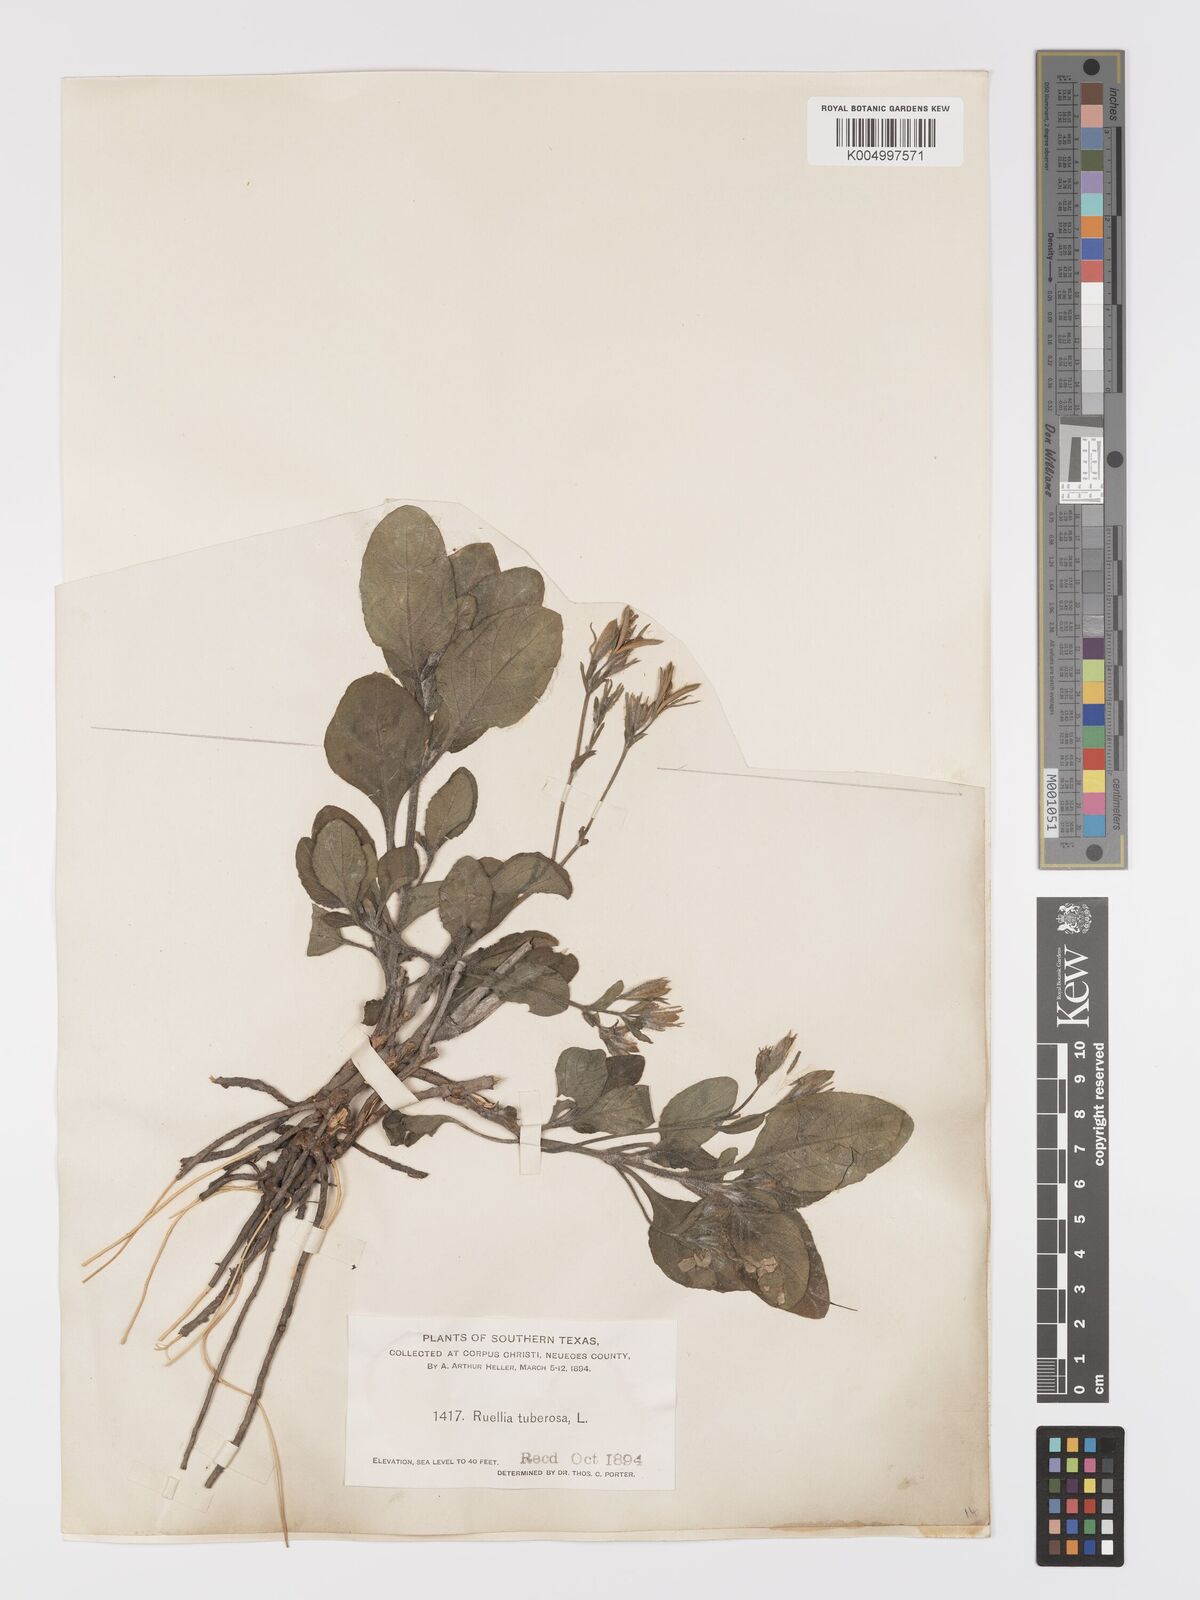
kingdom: Plantae
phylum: Tracheophyta
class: Magnoliopsida
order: Lamiales
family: Acanthaceae
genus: Ruellia
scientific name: Ruellia tuberosa
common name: Devil's bit
